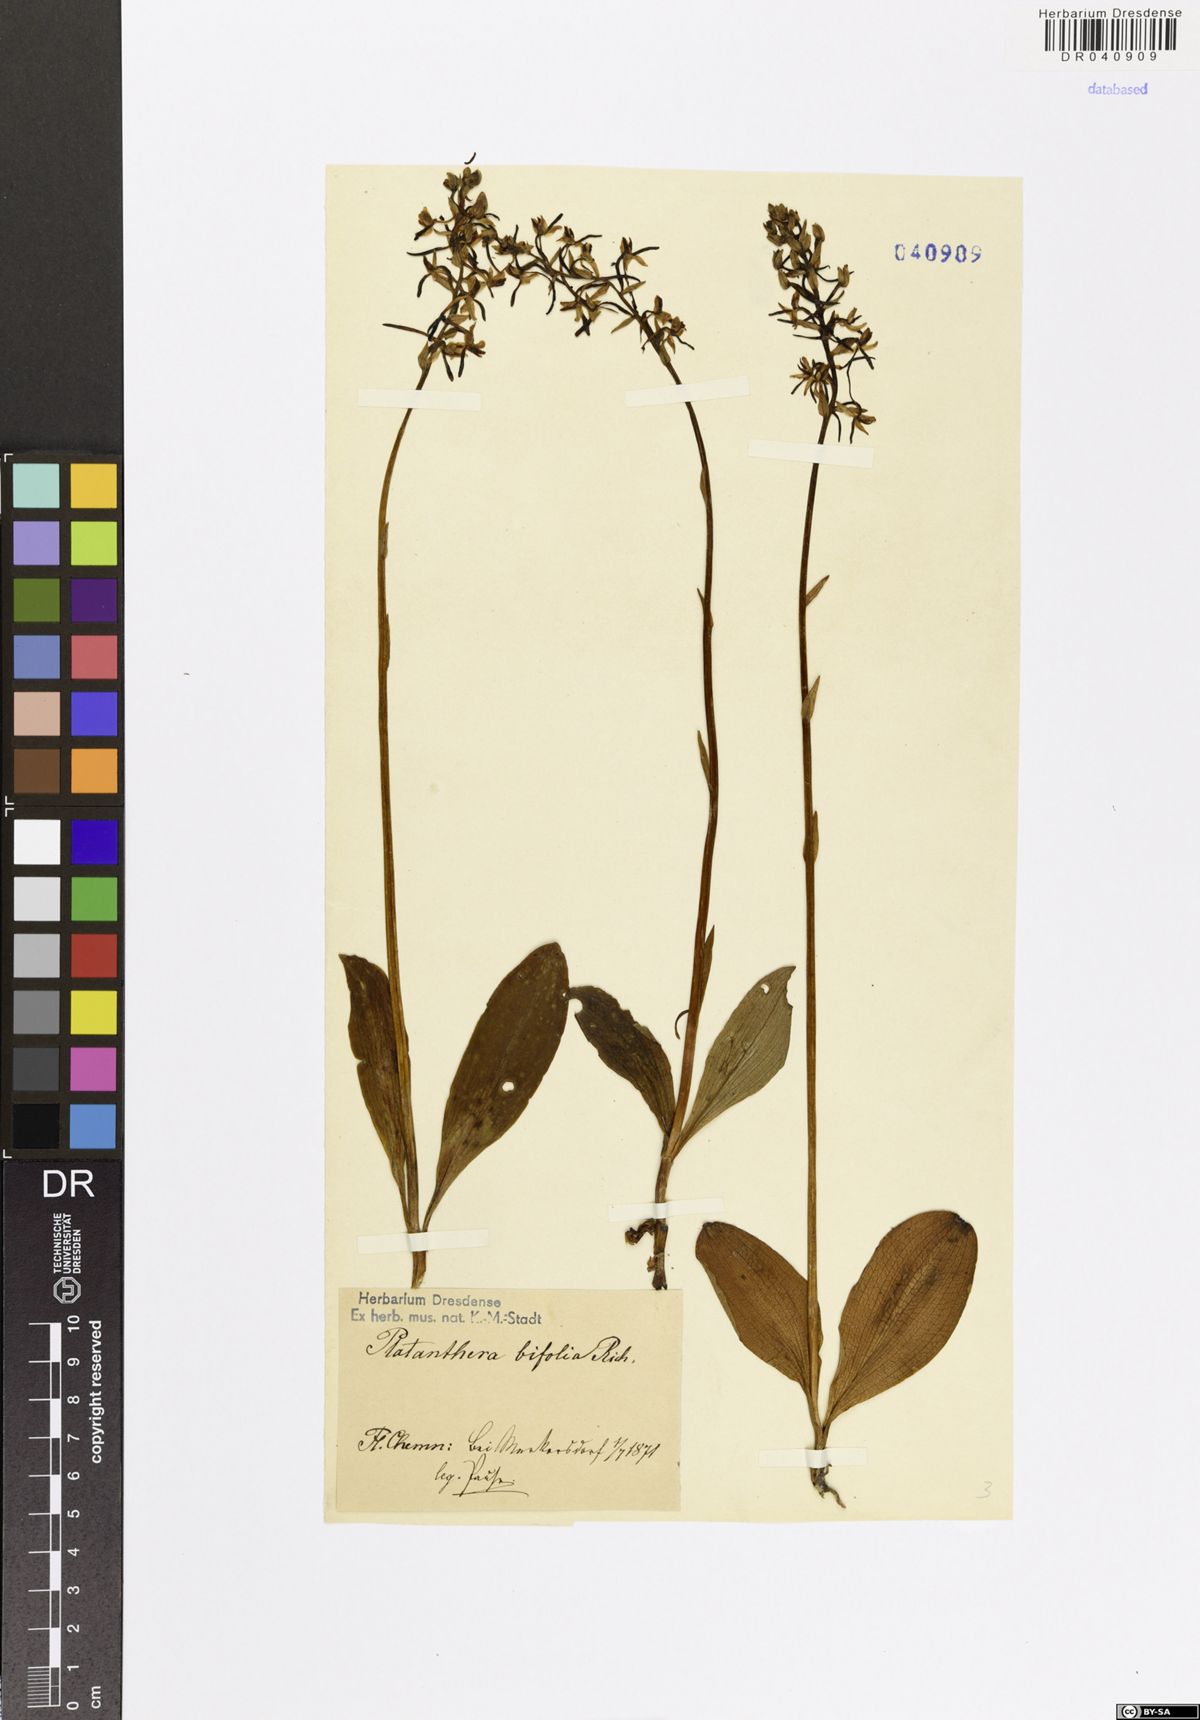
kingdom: Plantae
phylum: Tracheophyta
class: Liliopsida
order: Asparagales
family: Orchidaceae
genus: Platanthera
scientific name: Platanthera bifolia
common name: Lesser butterfly-orchid
